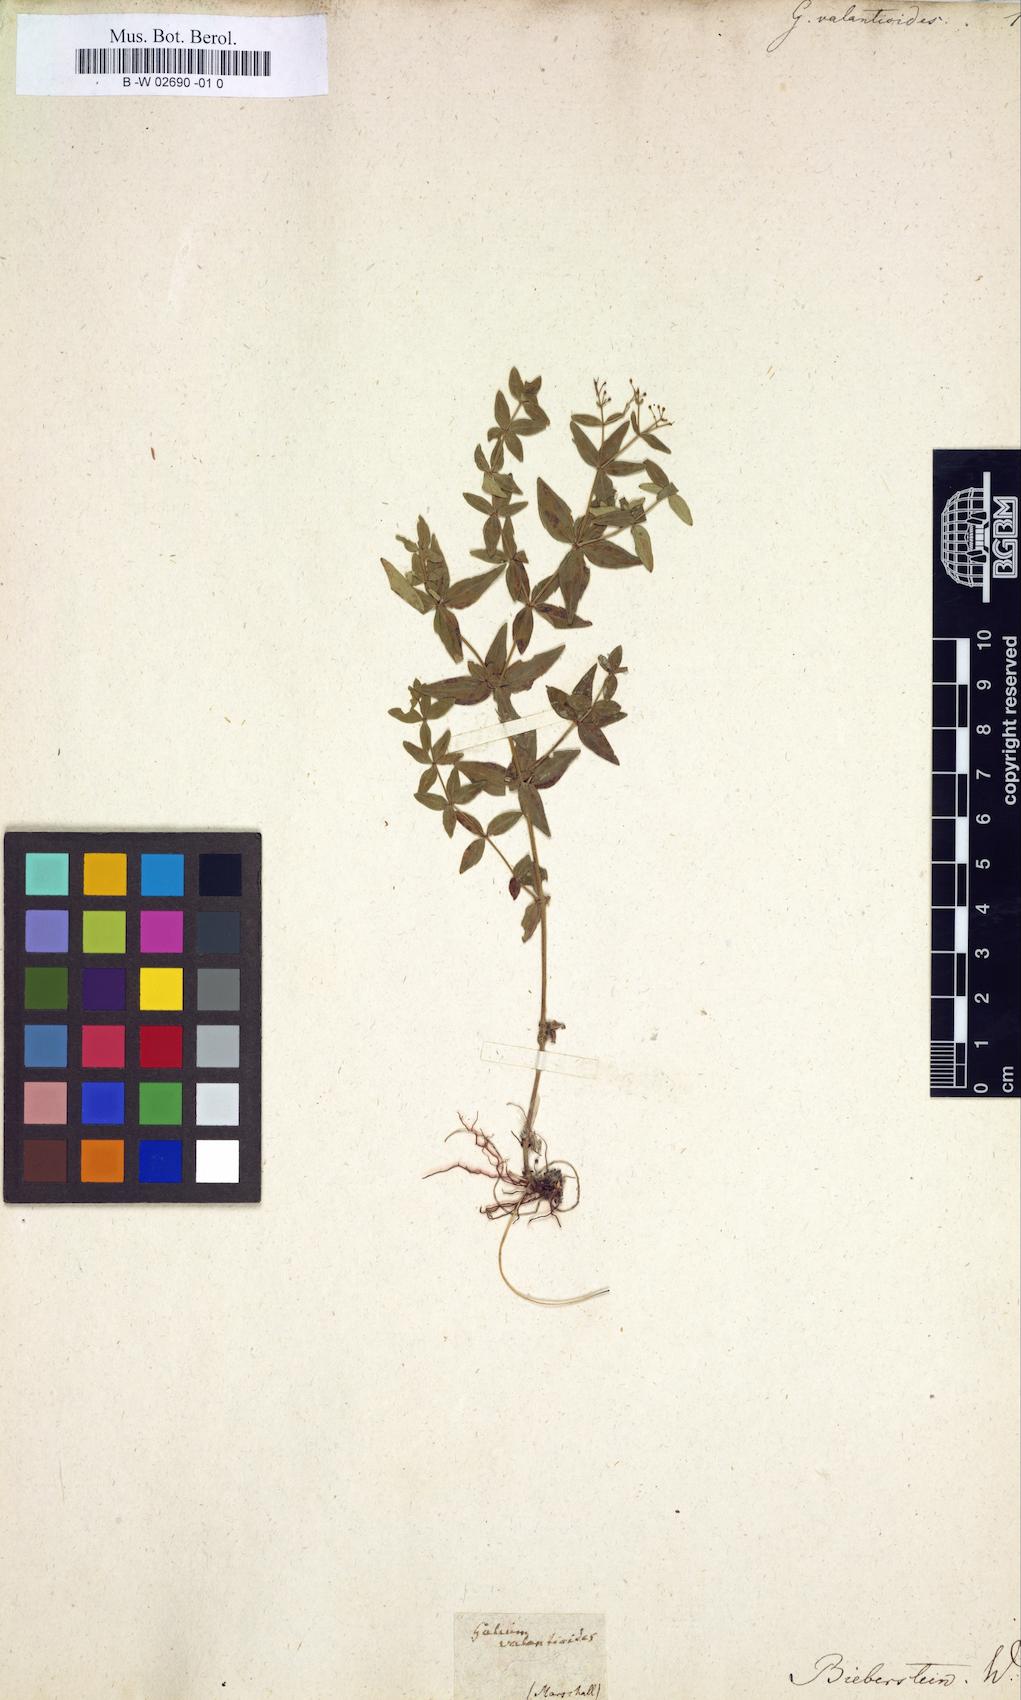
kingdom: Plantae
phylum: Tracheophyta
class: Magnoliopsida
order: Gentianales
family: Rubiaceae
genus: Galium
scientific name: Galium valantioides
